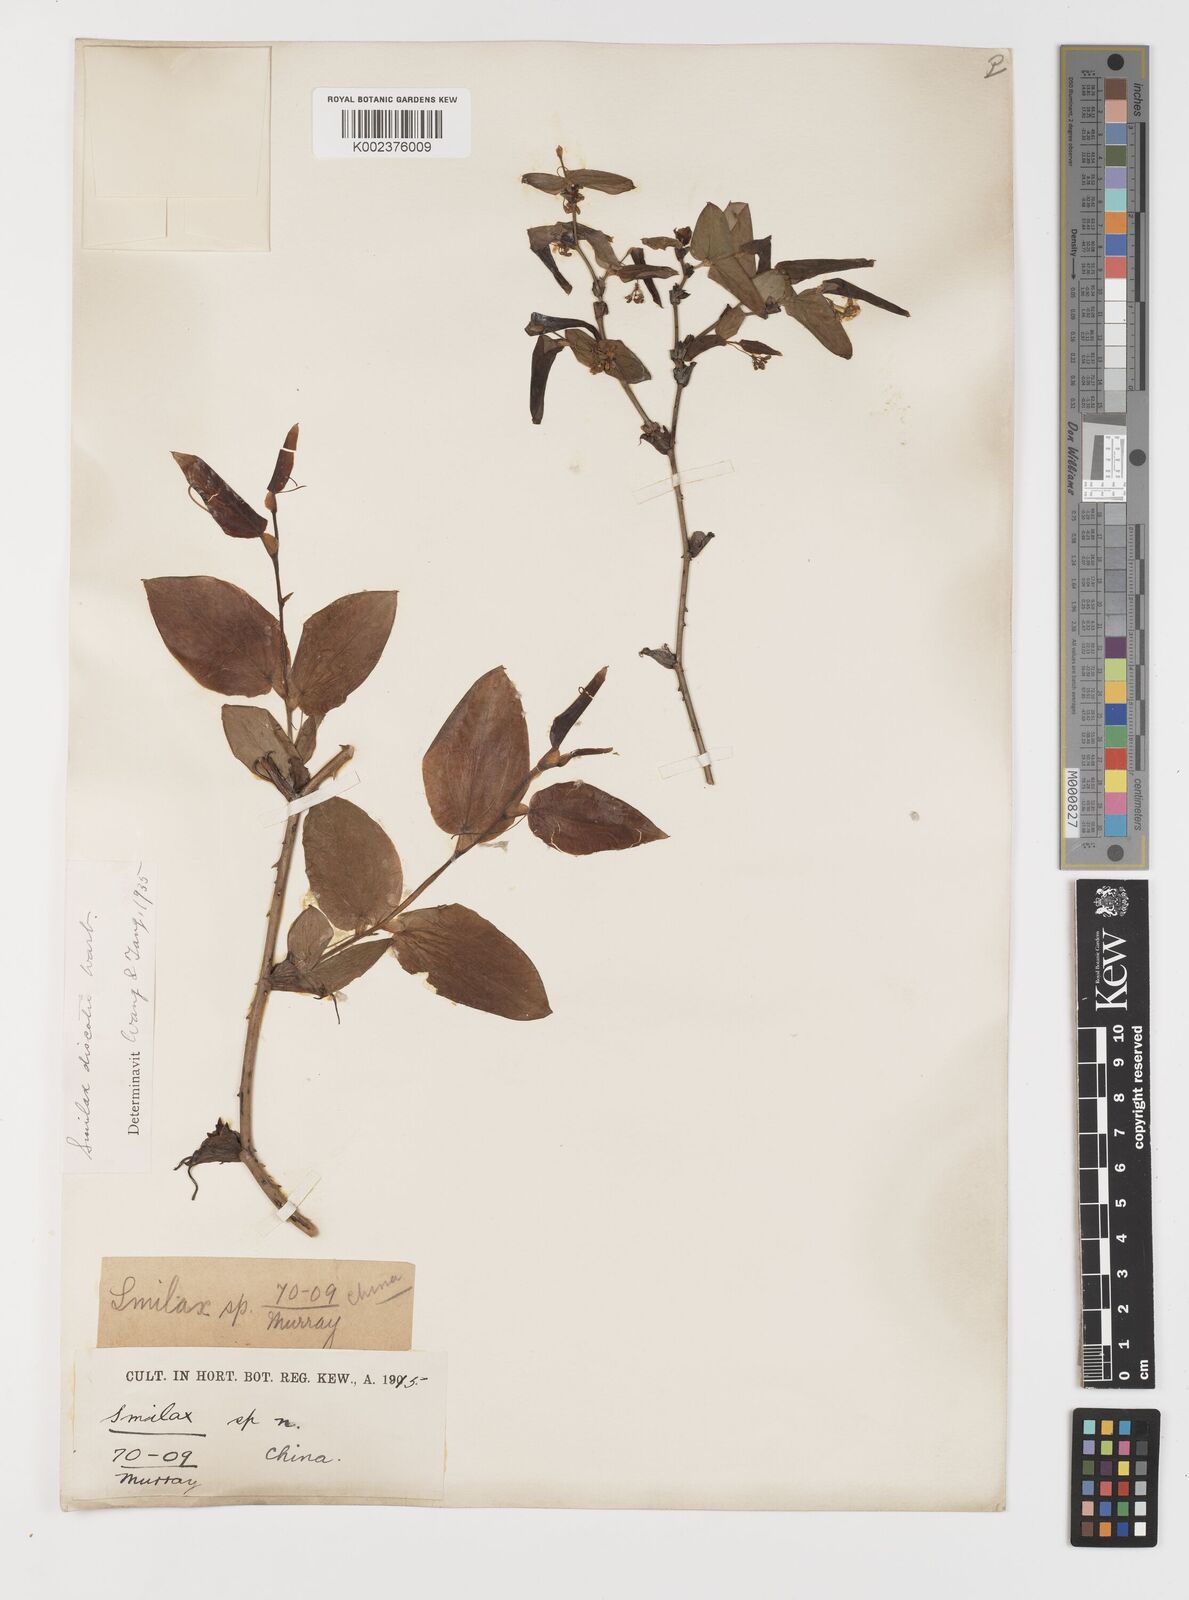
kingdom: Plantae
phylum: Tracheophyta
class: Liliopsida
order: Liliales
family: Smilacaceae
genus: Smilax
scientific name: Smilax discotis
